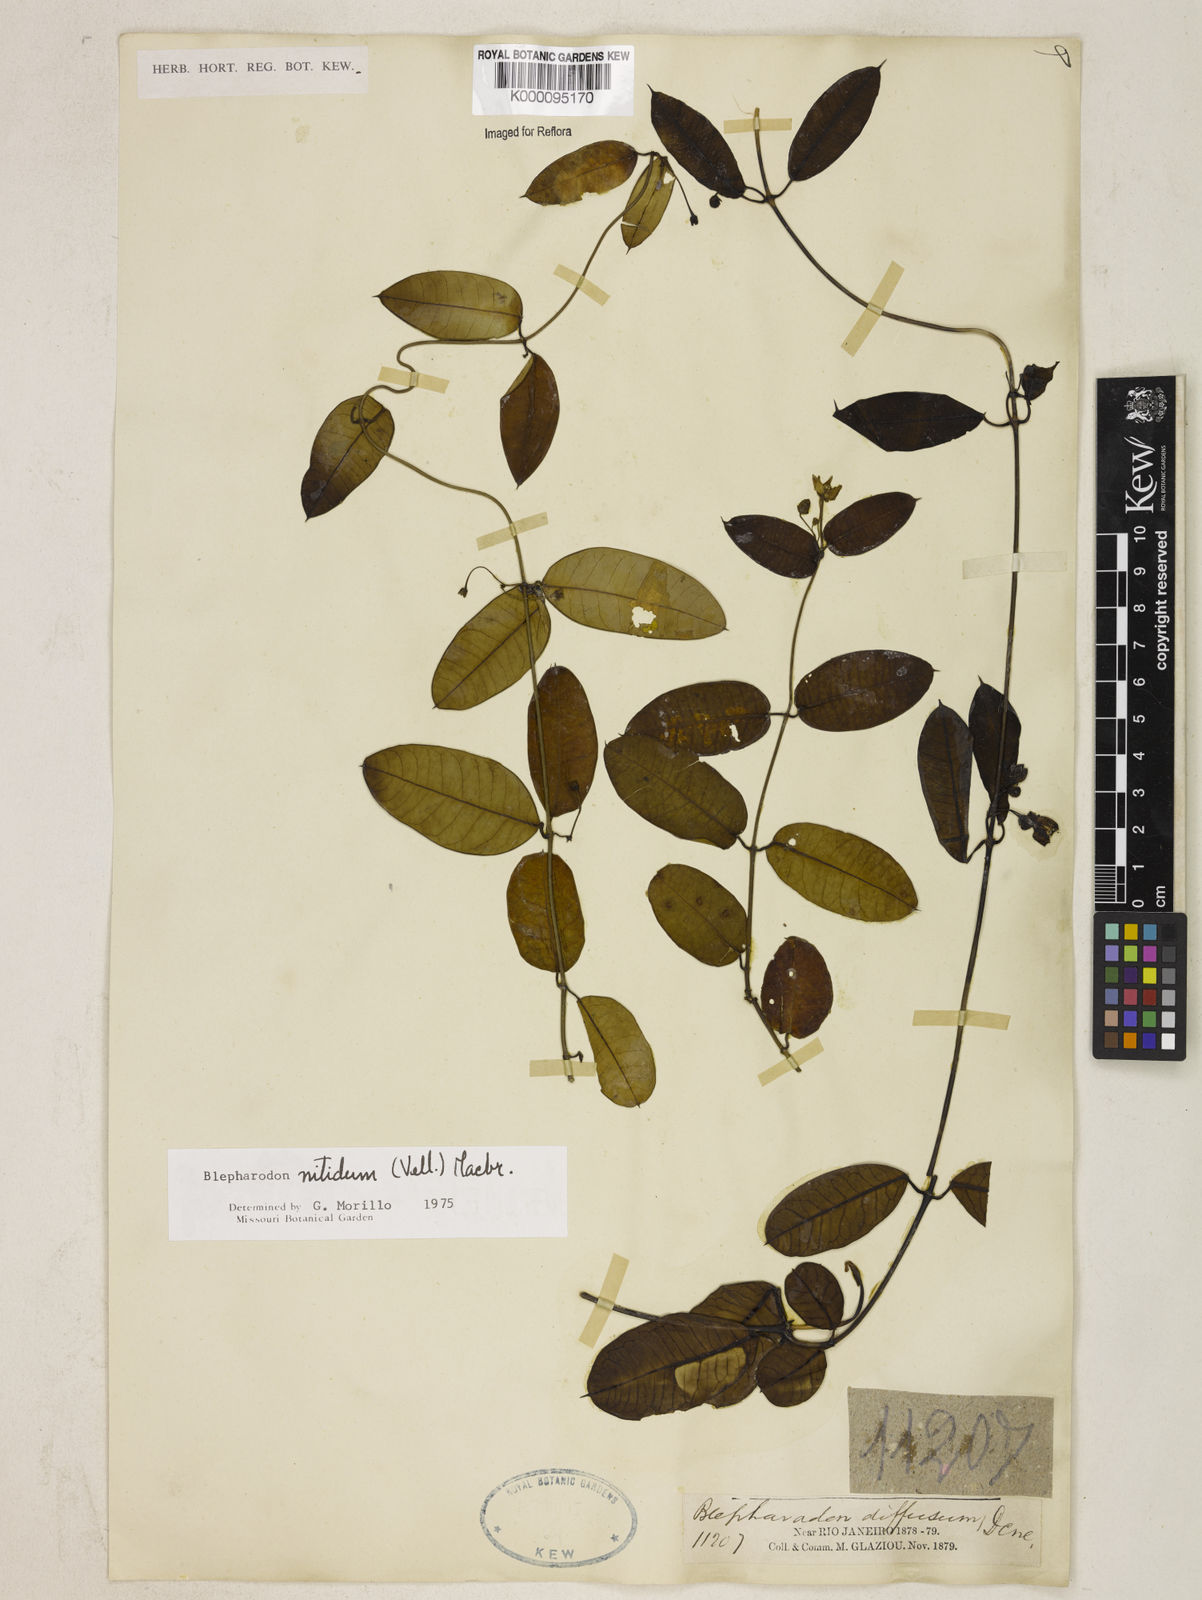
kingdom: Plantae
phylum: Tracheophyta
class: Magnoliopsida
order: Gentianales
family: Apocynaceae
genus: Blepharodon
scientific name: Blepharodon pictum
